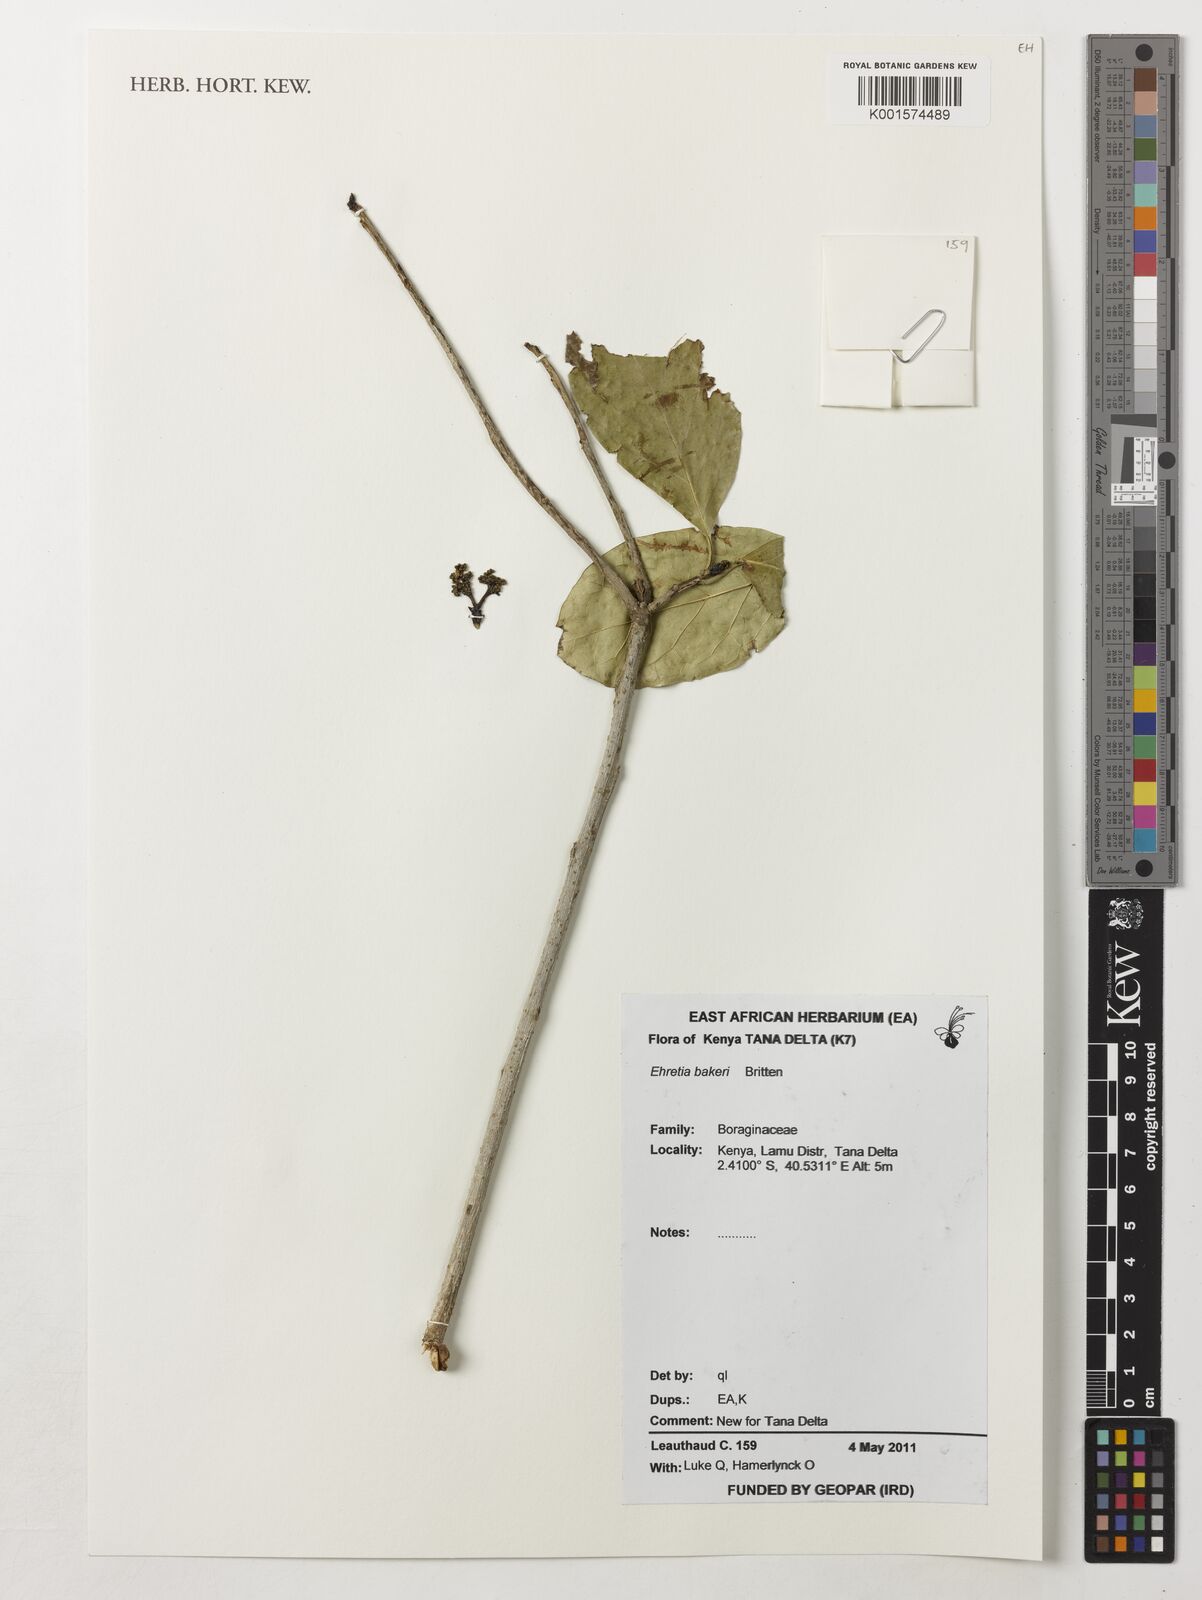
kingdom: Plantae
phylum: Tracheophyta
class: Magnoliopsida
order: Boraginales
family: Ehretiaceae
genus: Ehretia
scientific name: Ehretia bakeri
